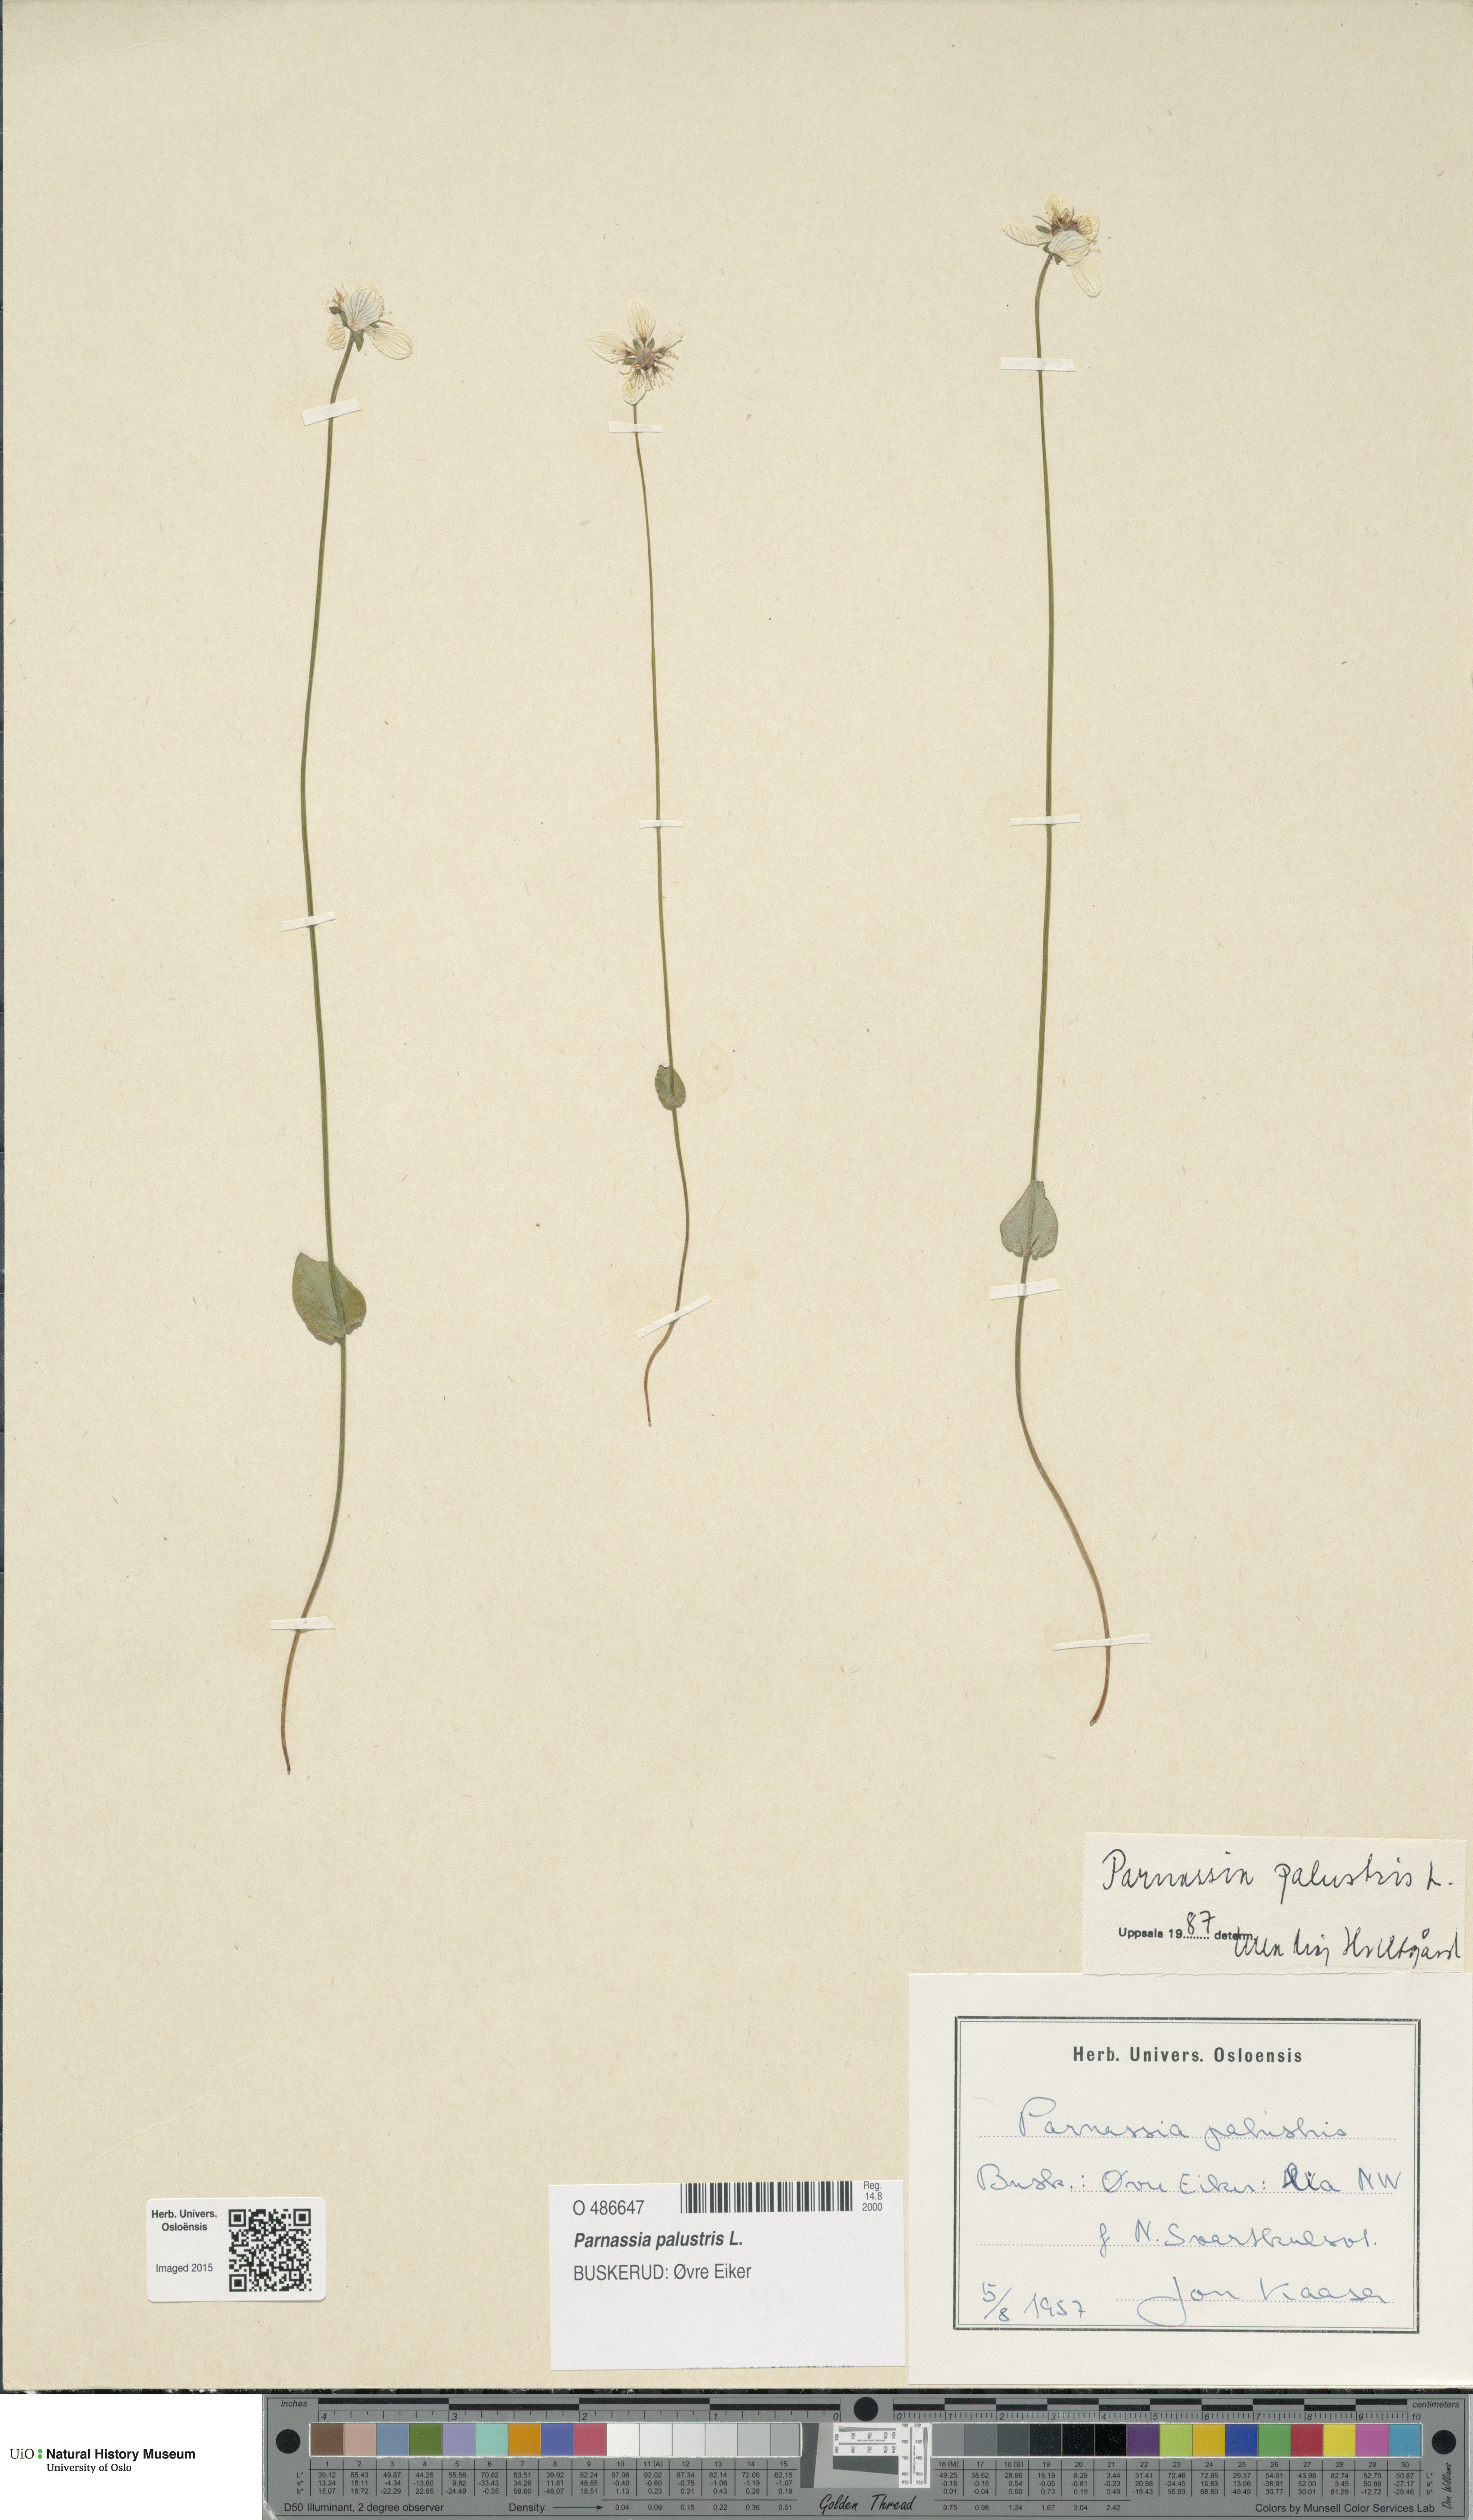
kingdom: Plantae
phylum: Tracheophyta
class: Magnoliopsida
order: Celastrales
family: Parnassiaceae
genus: Parnassia
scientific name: Parnassia palustris
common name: Grass-of-parnassus
